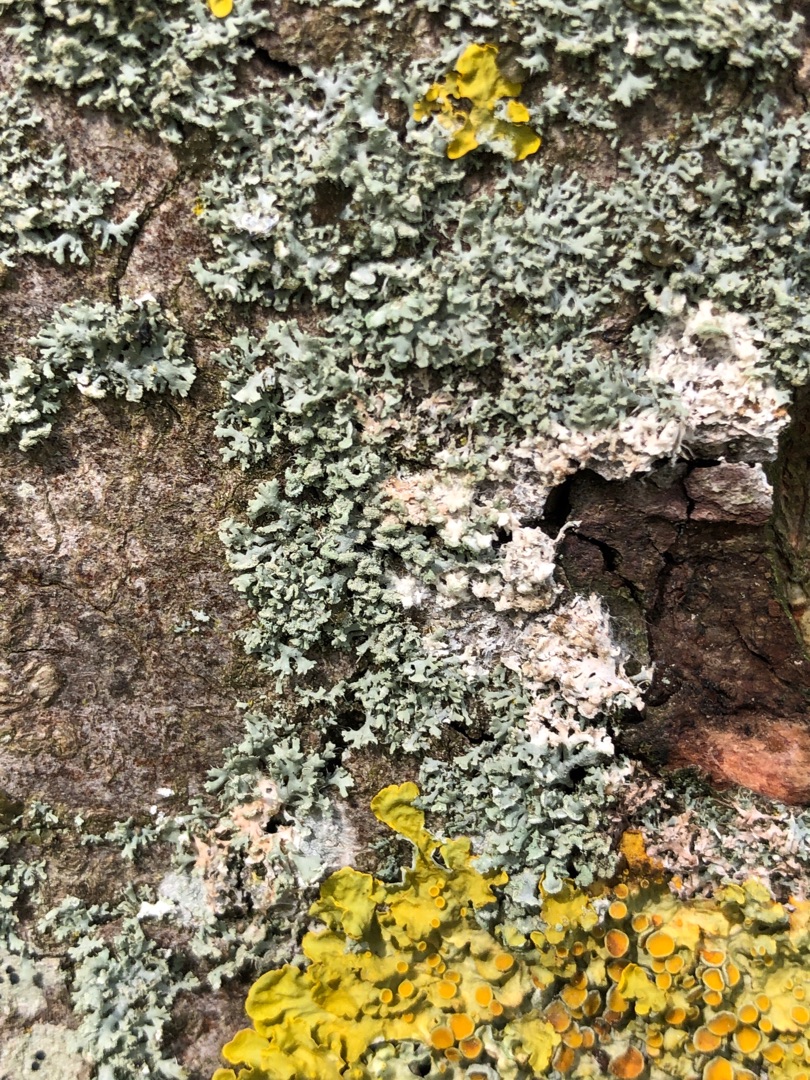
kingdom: Fungi
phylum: Ascomycota
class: Lecanoromycetes
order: Caliciales
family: Physciaceae
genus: Physcia
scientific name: Physcia tenella
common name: Spæd rosetlav
